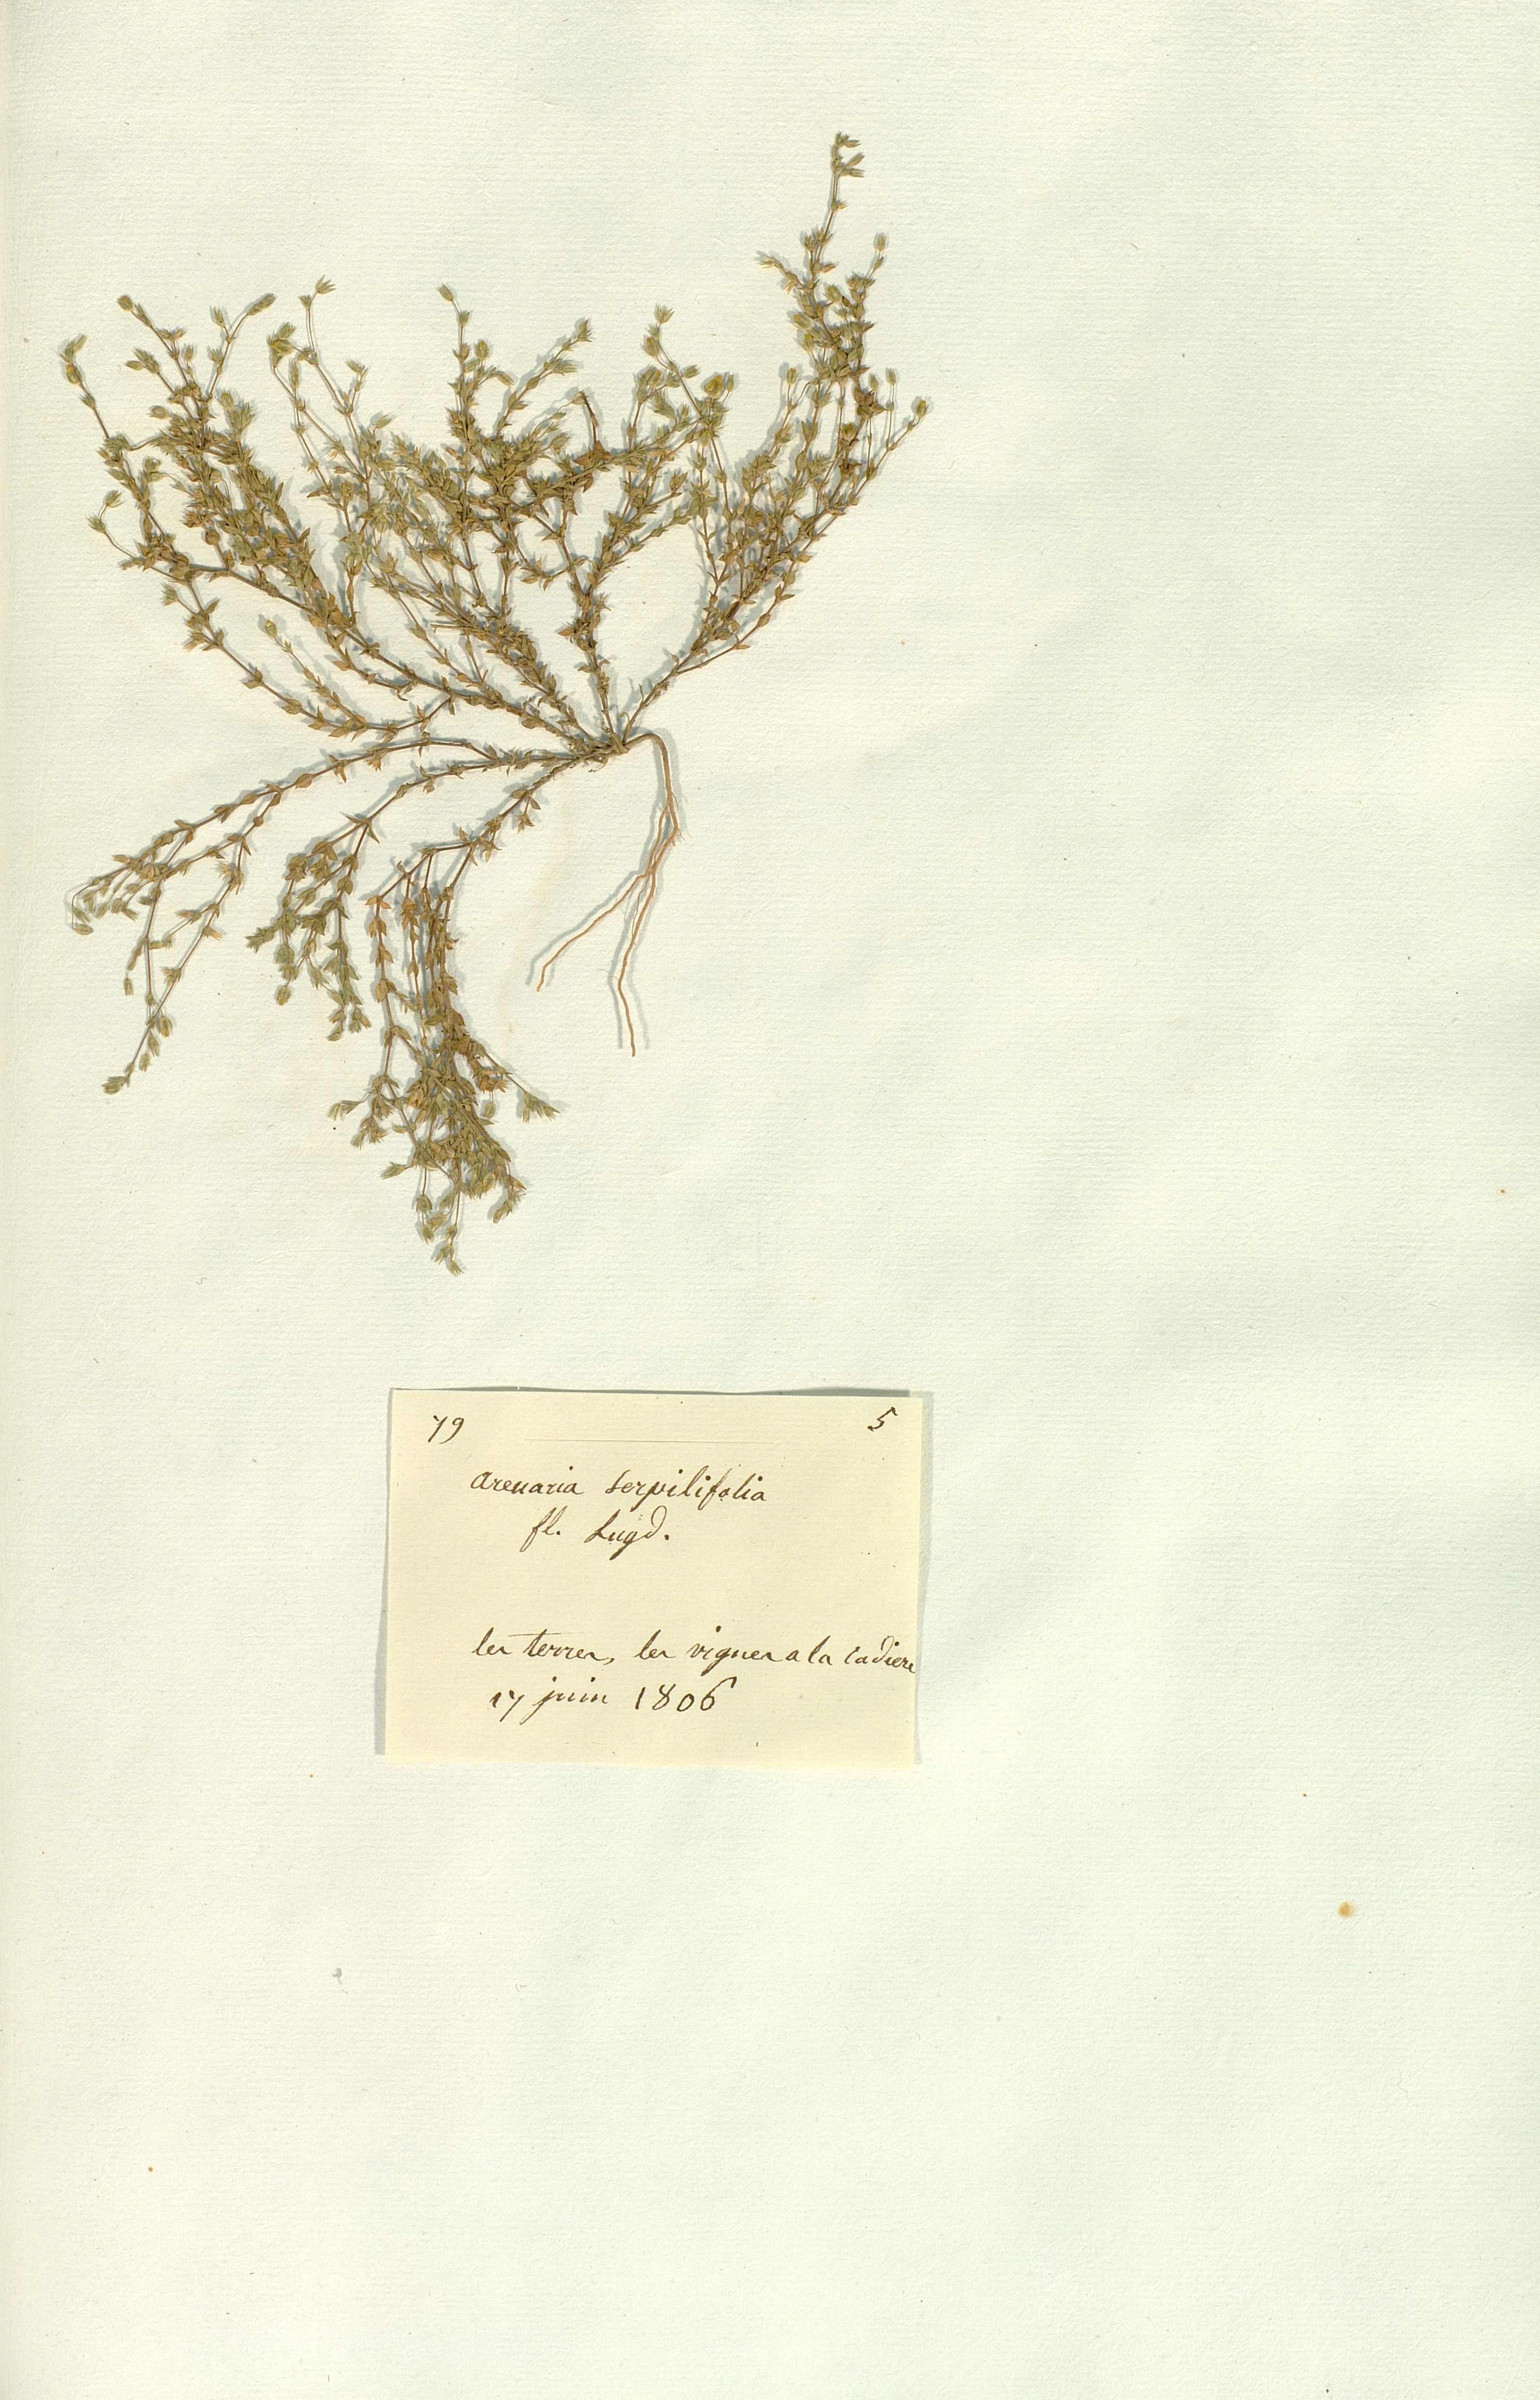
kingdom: Plantae
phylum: Tracheophyta
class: Magnoliopsida
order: Caryophyllales
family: Caryophyllaceae
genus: Arenaria
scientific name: Arenaria serpyllifolia
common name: Thyme-leaved sandwort
